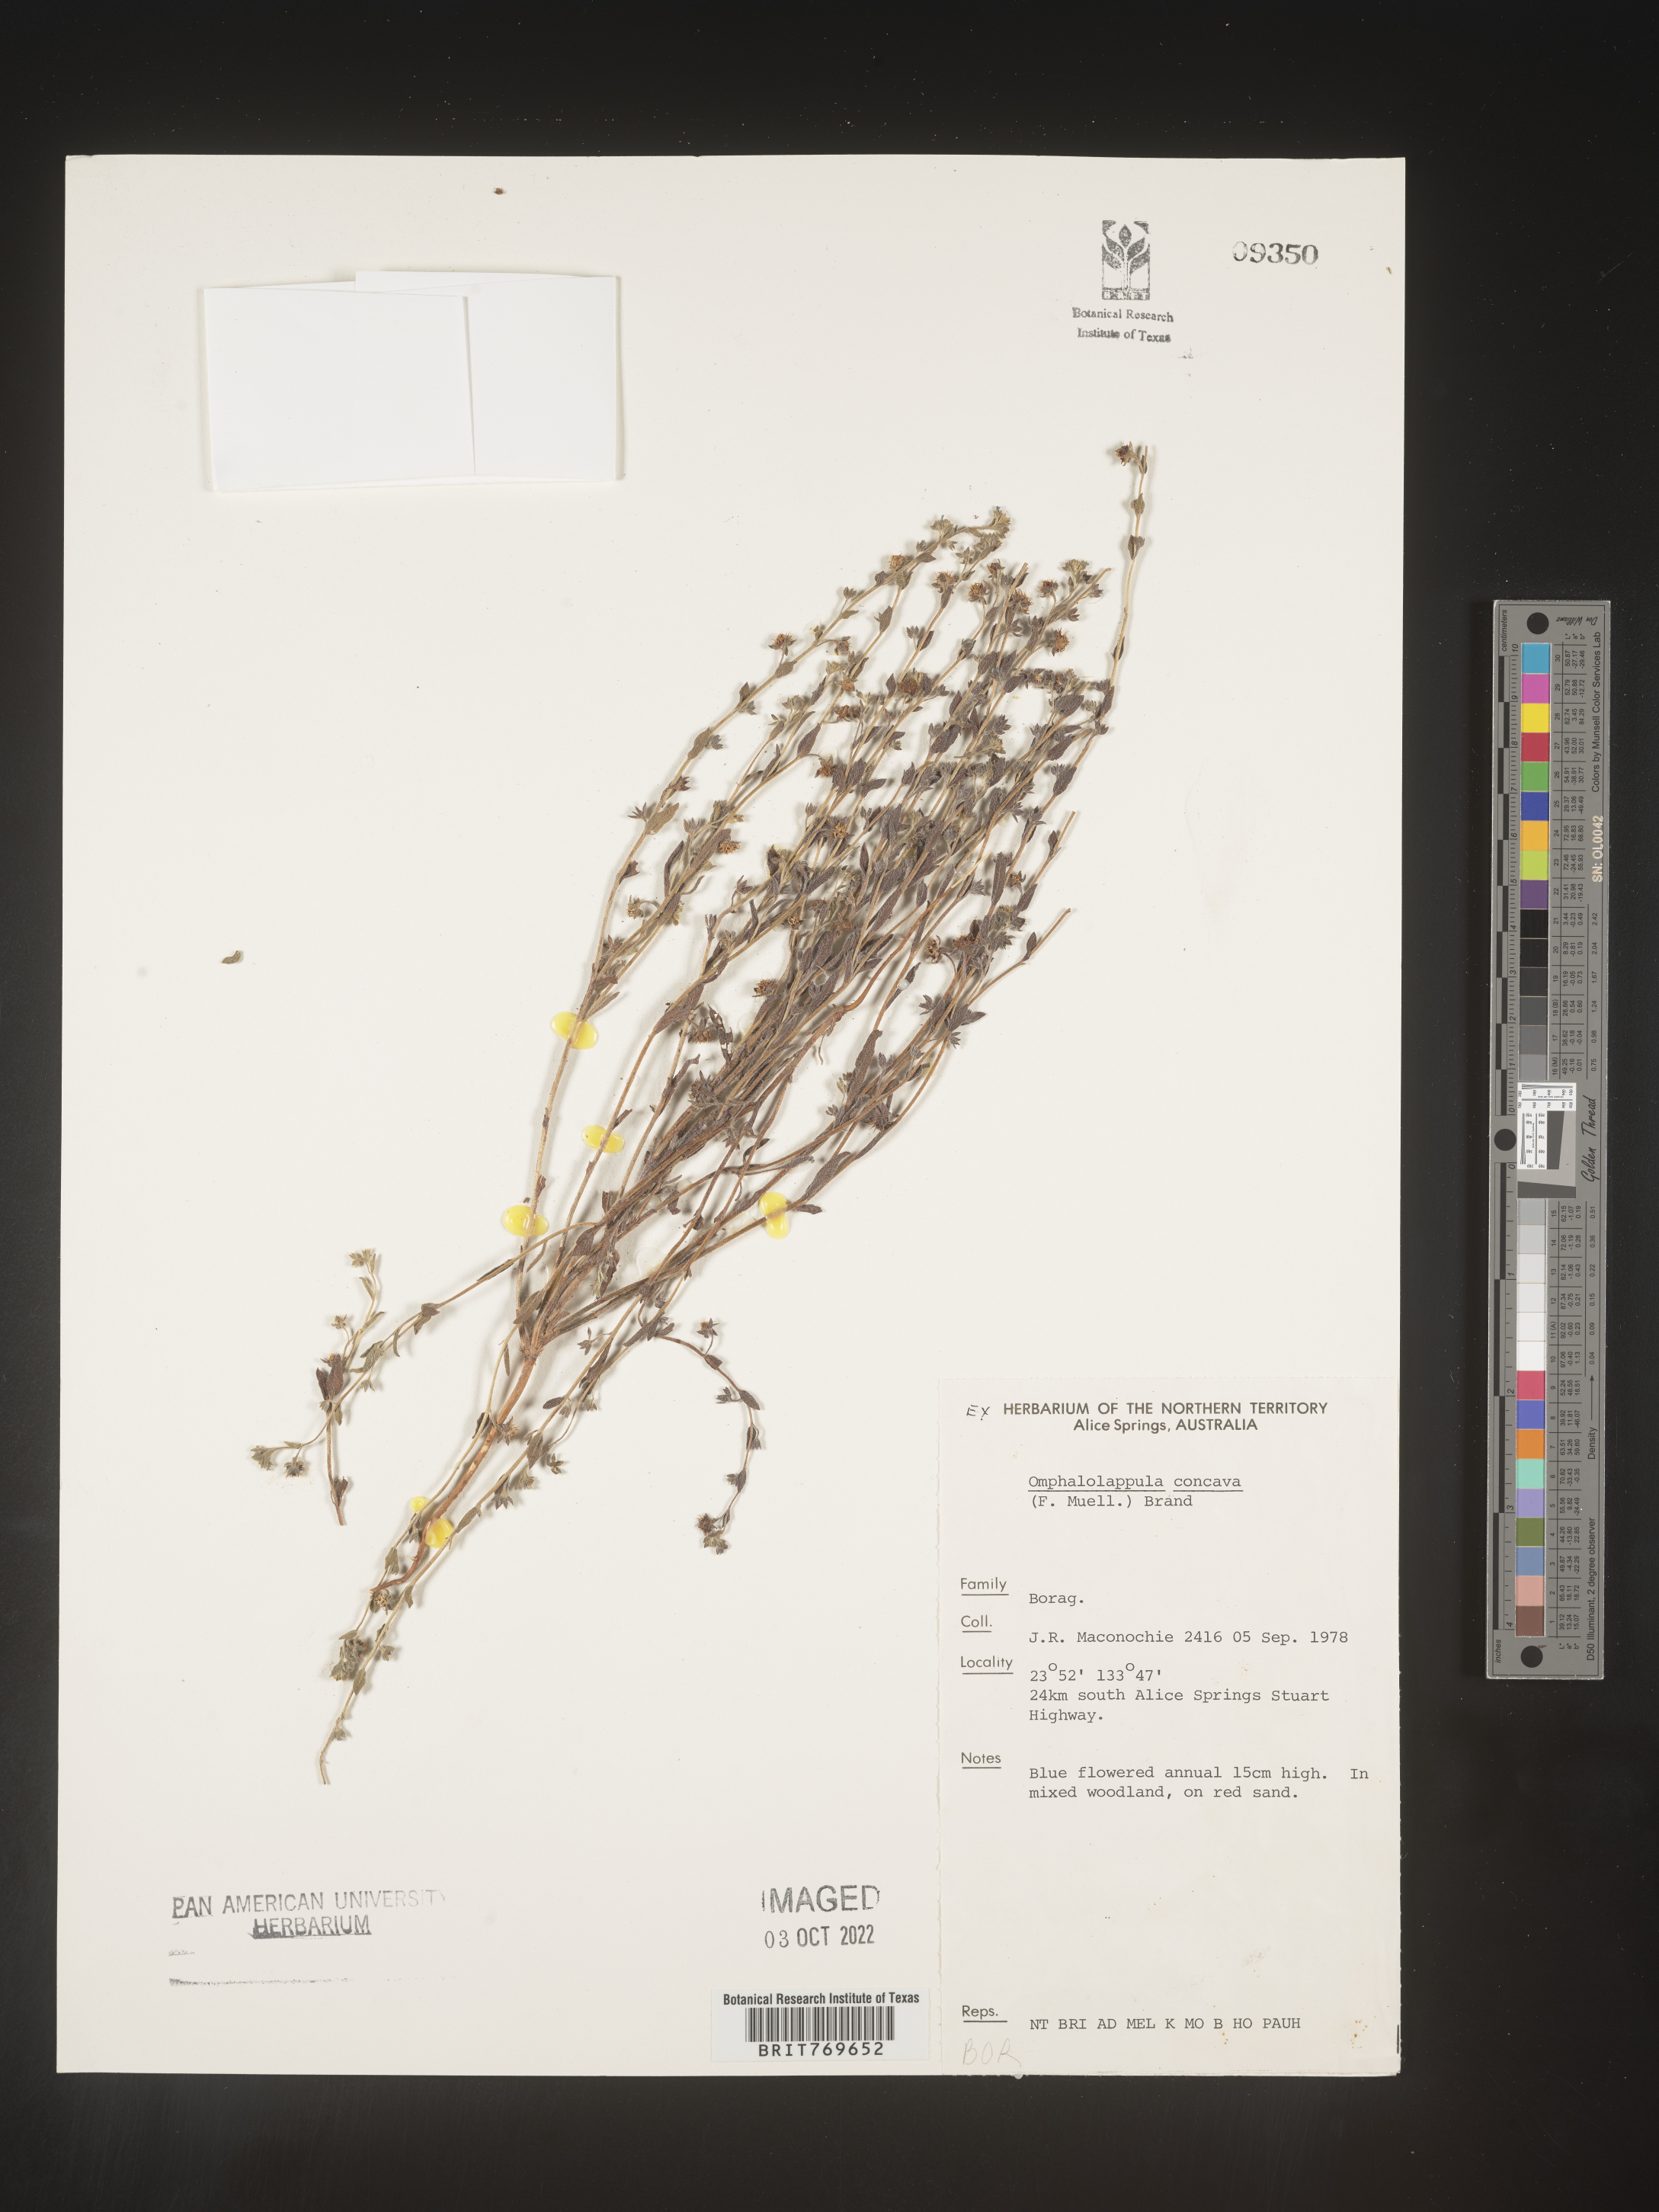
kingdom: Plantae
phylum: Tracheophyta
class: Magnoliopsida
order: Boraginales
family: Boraginaceae
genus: Omphalolappula
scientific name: Omphalolappula concava
